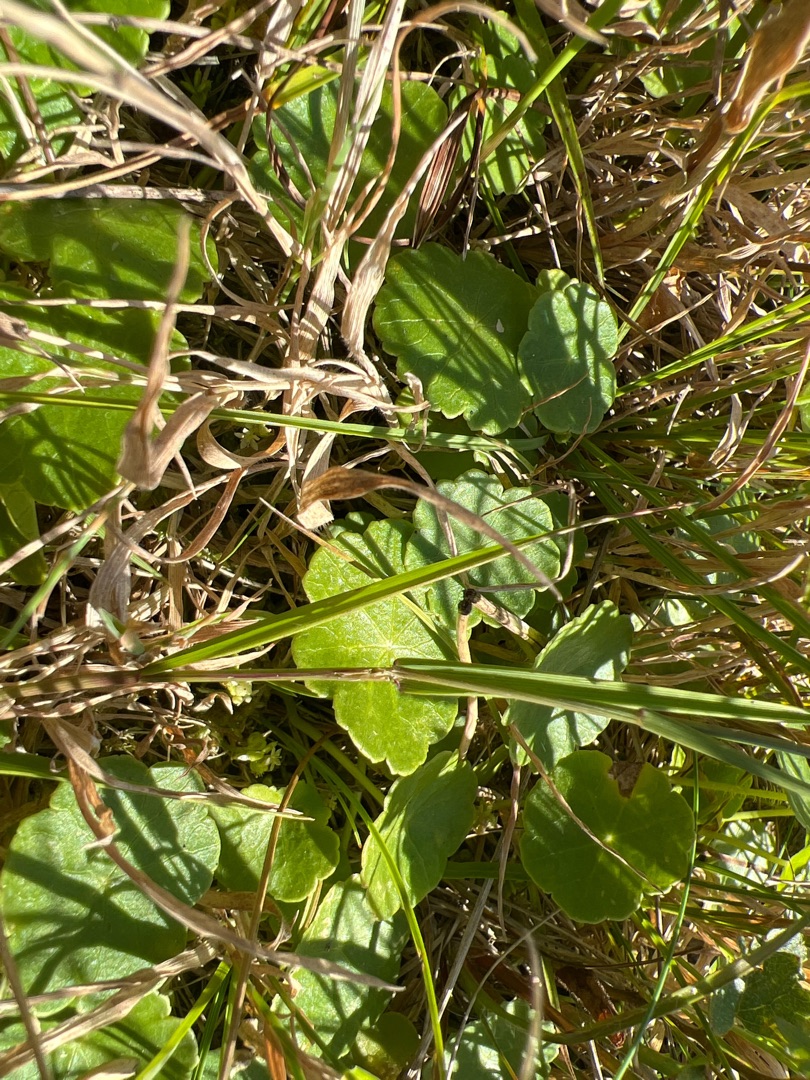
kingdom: Plantae
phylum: Tracheophyta
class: Magnoliopsida
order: Apiales
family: Araliaceae
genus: Hydrocotyle
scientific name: Hydrocotyle vulgaris
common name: Vandnavle
